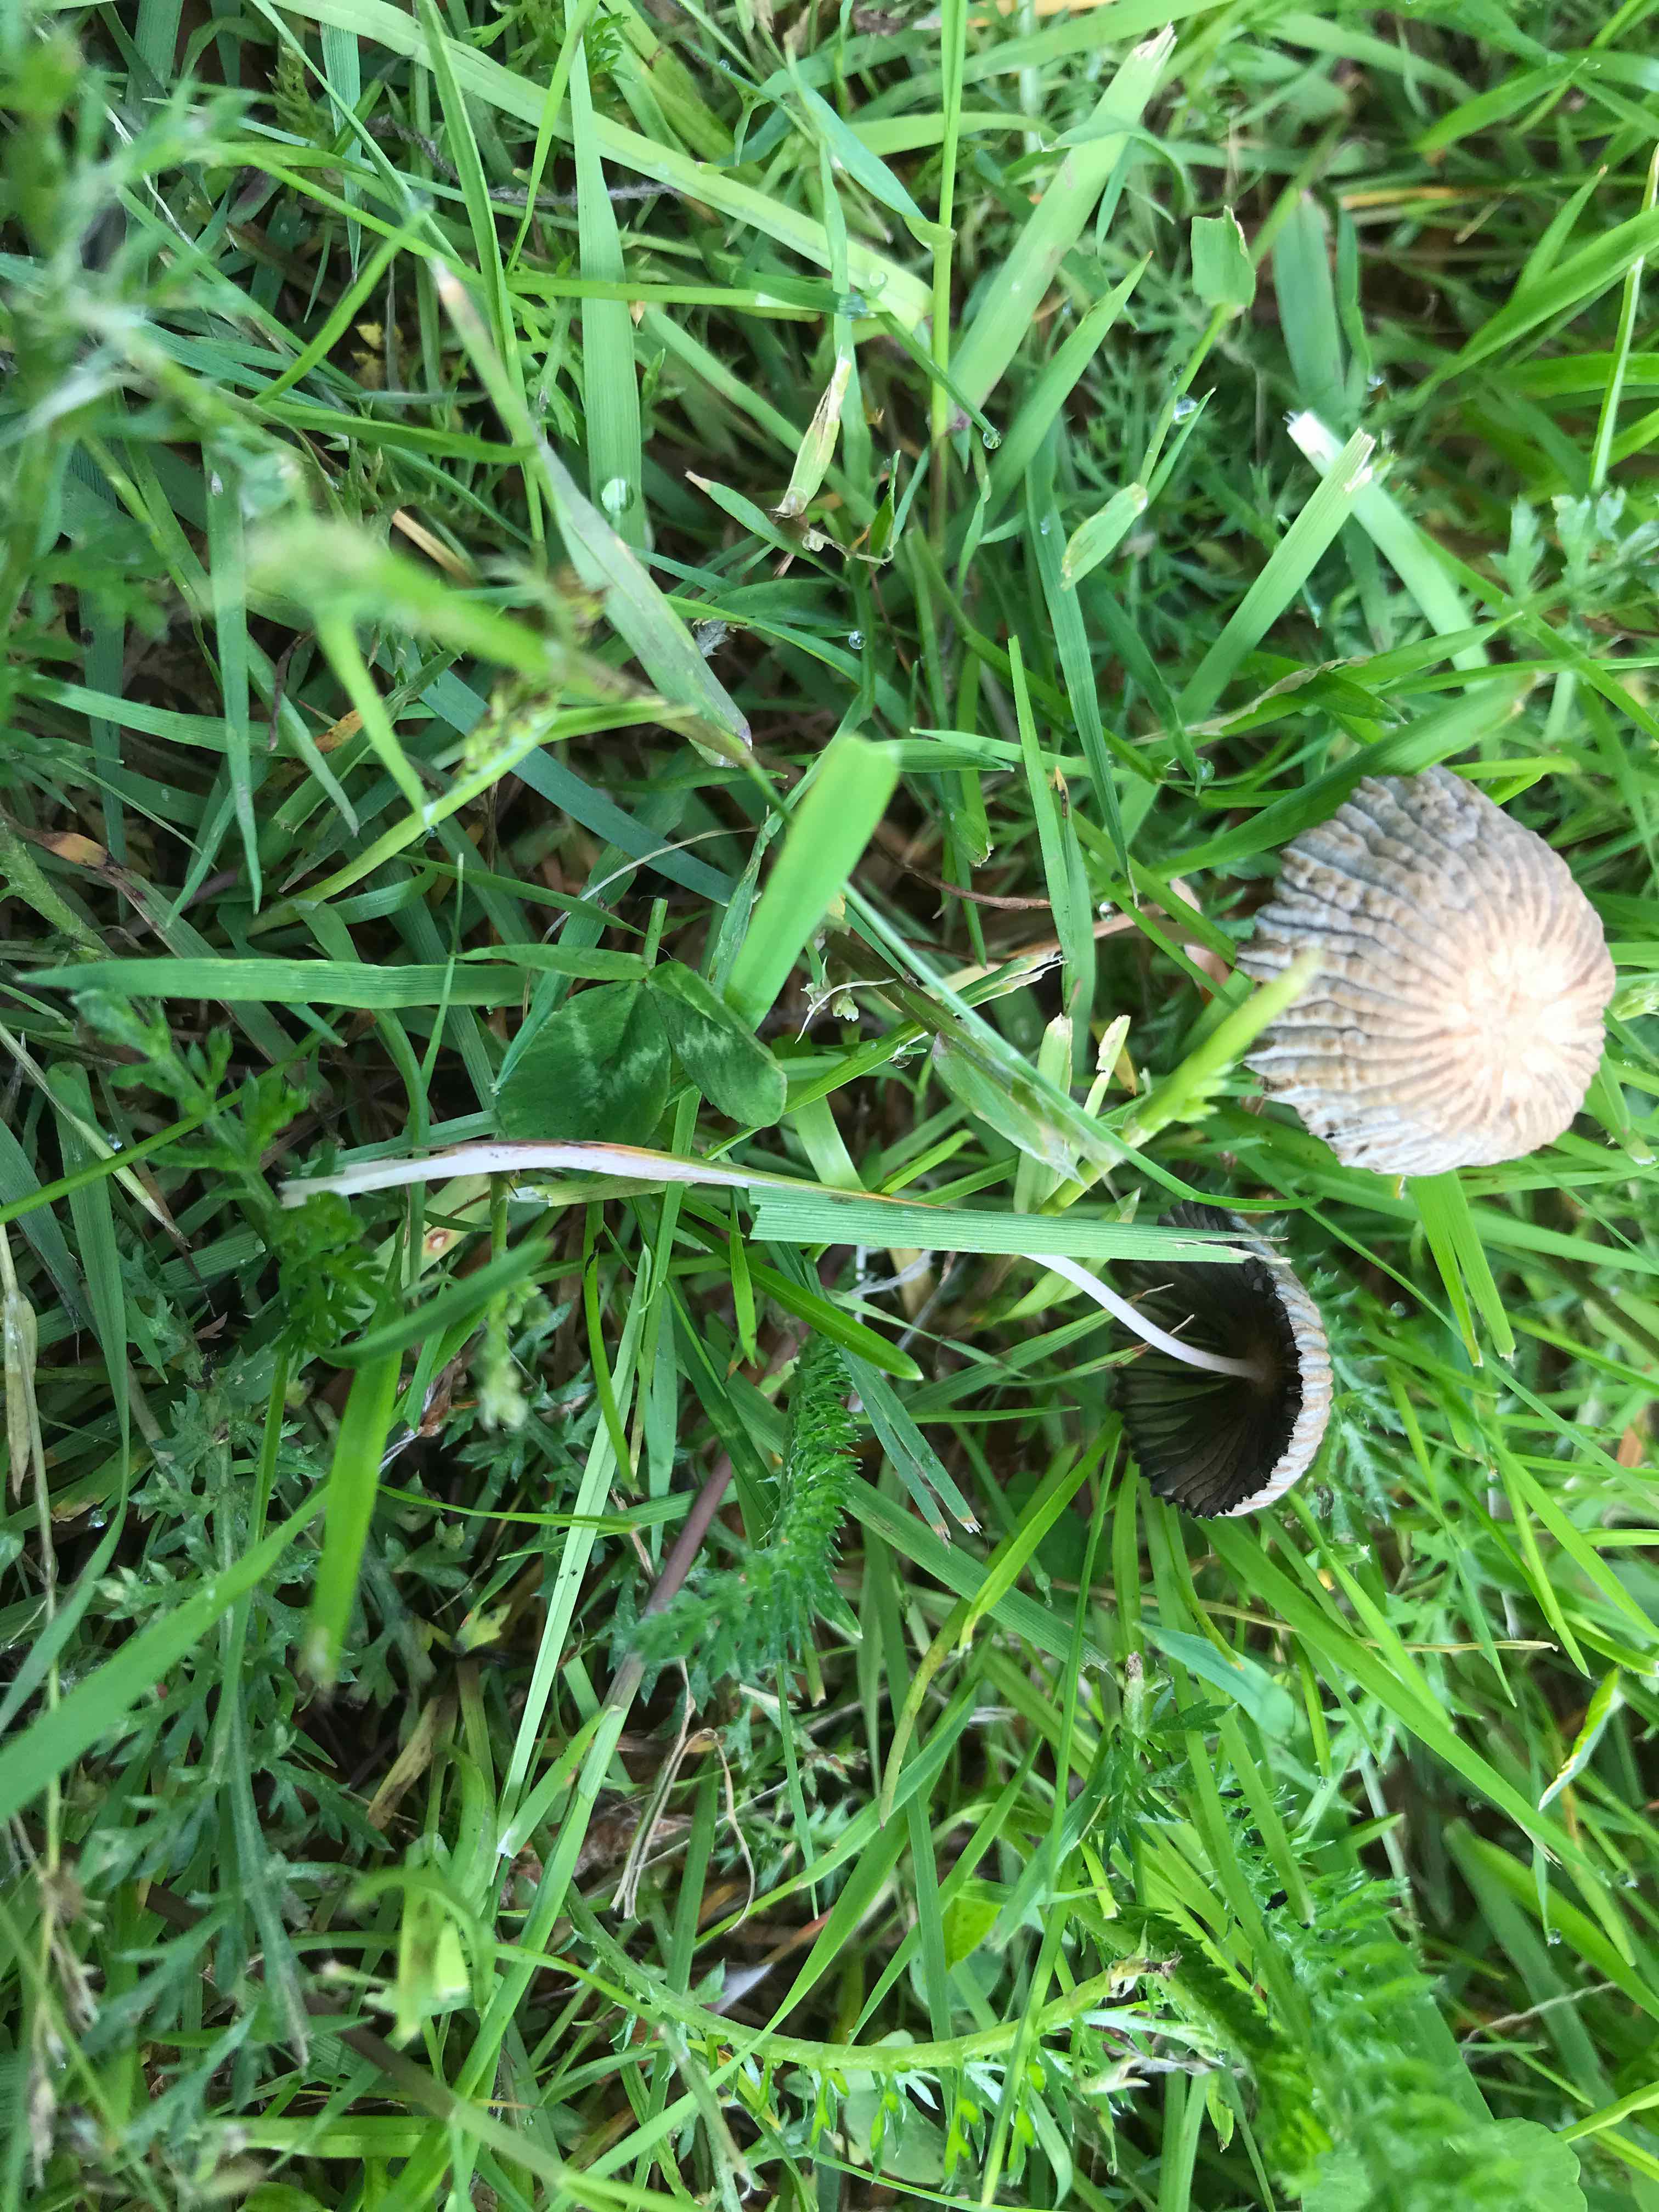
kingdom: Fungi
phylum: Basidiomycota
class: Agaricomycetes
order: Agaricales
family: Psathyrellaceae
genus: Parasola
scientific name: Parasola
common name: hjulhat
